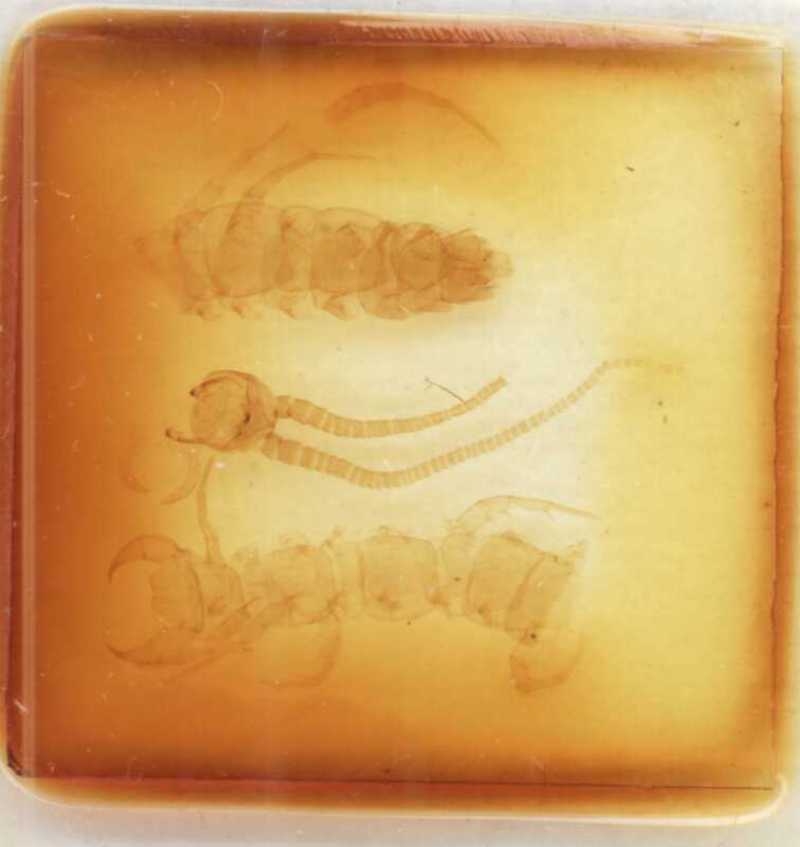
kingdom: Animalia
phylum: Arthropoda
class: Chilopoda
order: Lithobiomorpha
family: Lithobiidae
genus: Polybothrus
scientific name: Polybothrus hercegovinensis
